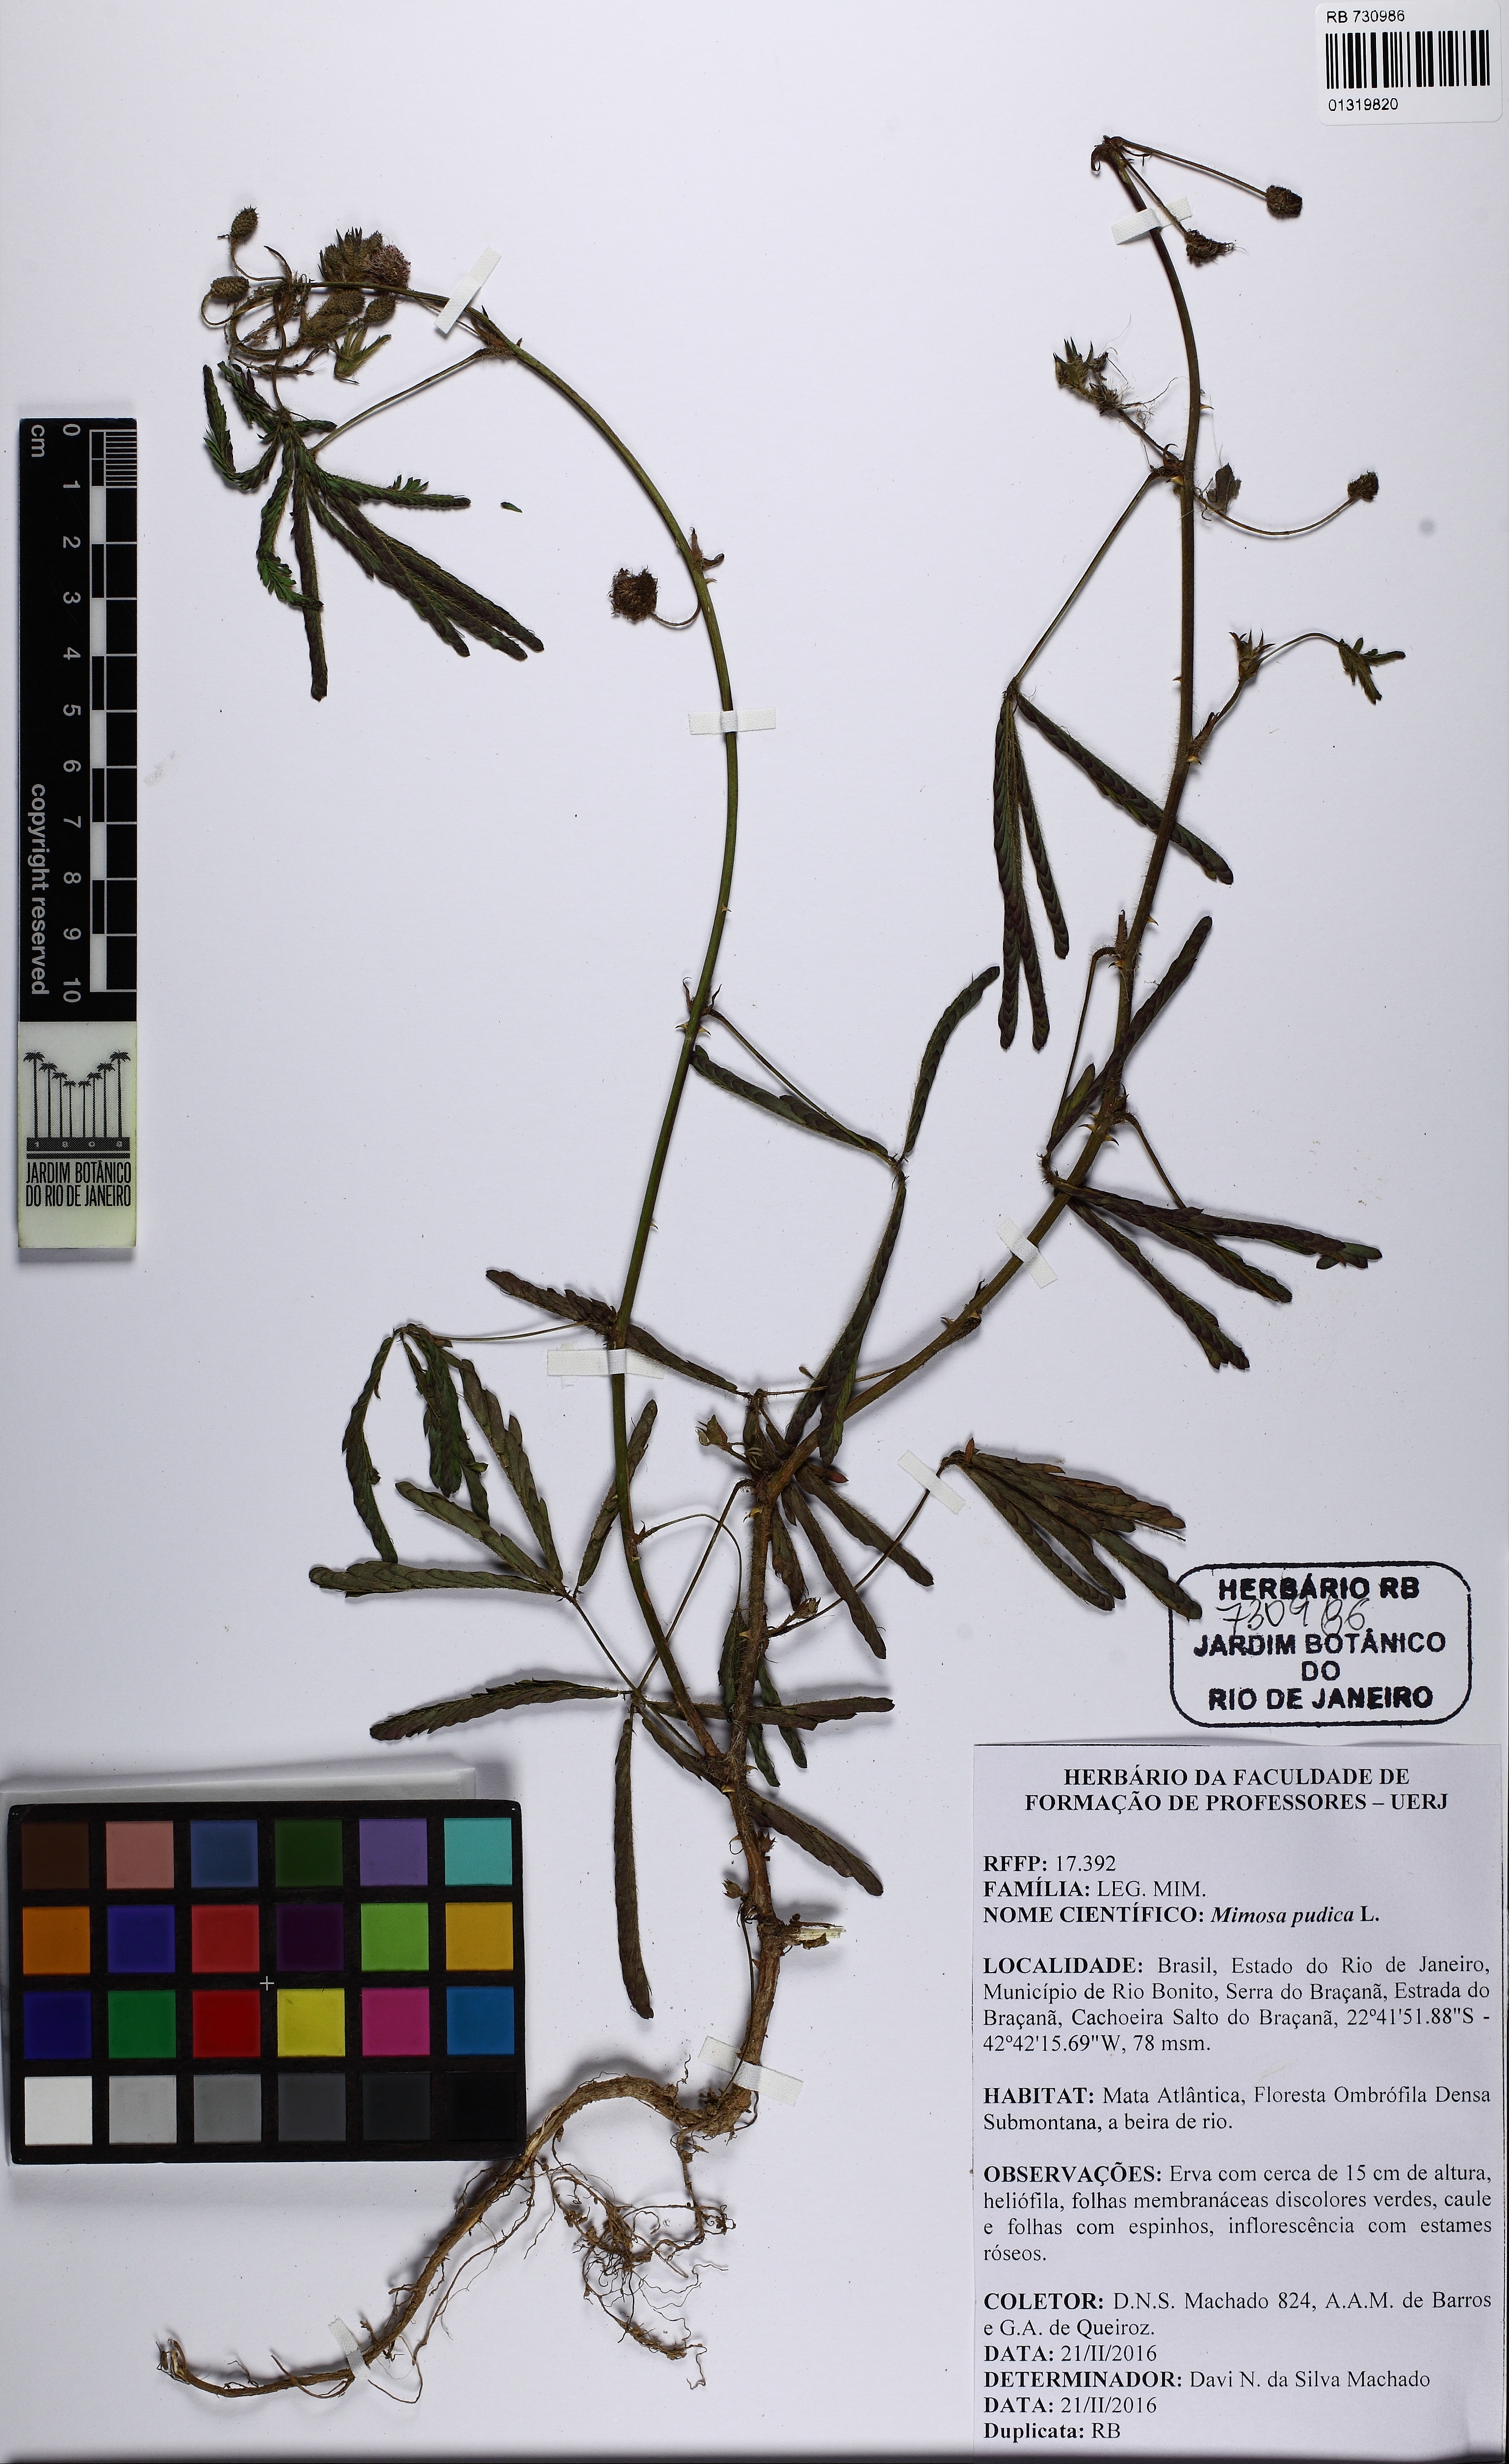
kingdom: Plantae
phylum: Tracheophyta
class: Magnoliopsida
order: Fabales
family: Fabaceae
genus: Mimosa
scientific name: Mimosa pudica
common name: Sensitive plant
